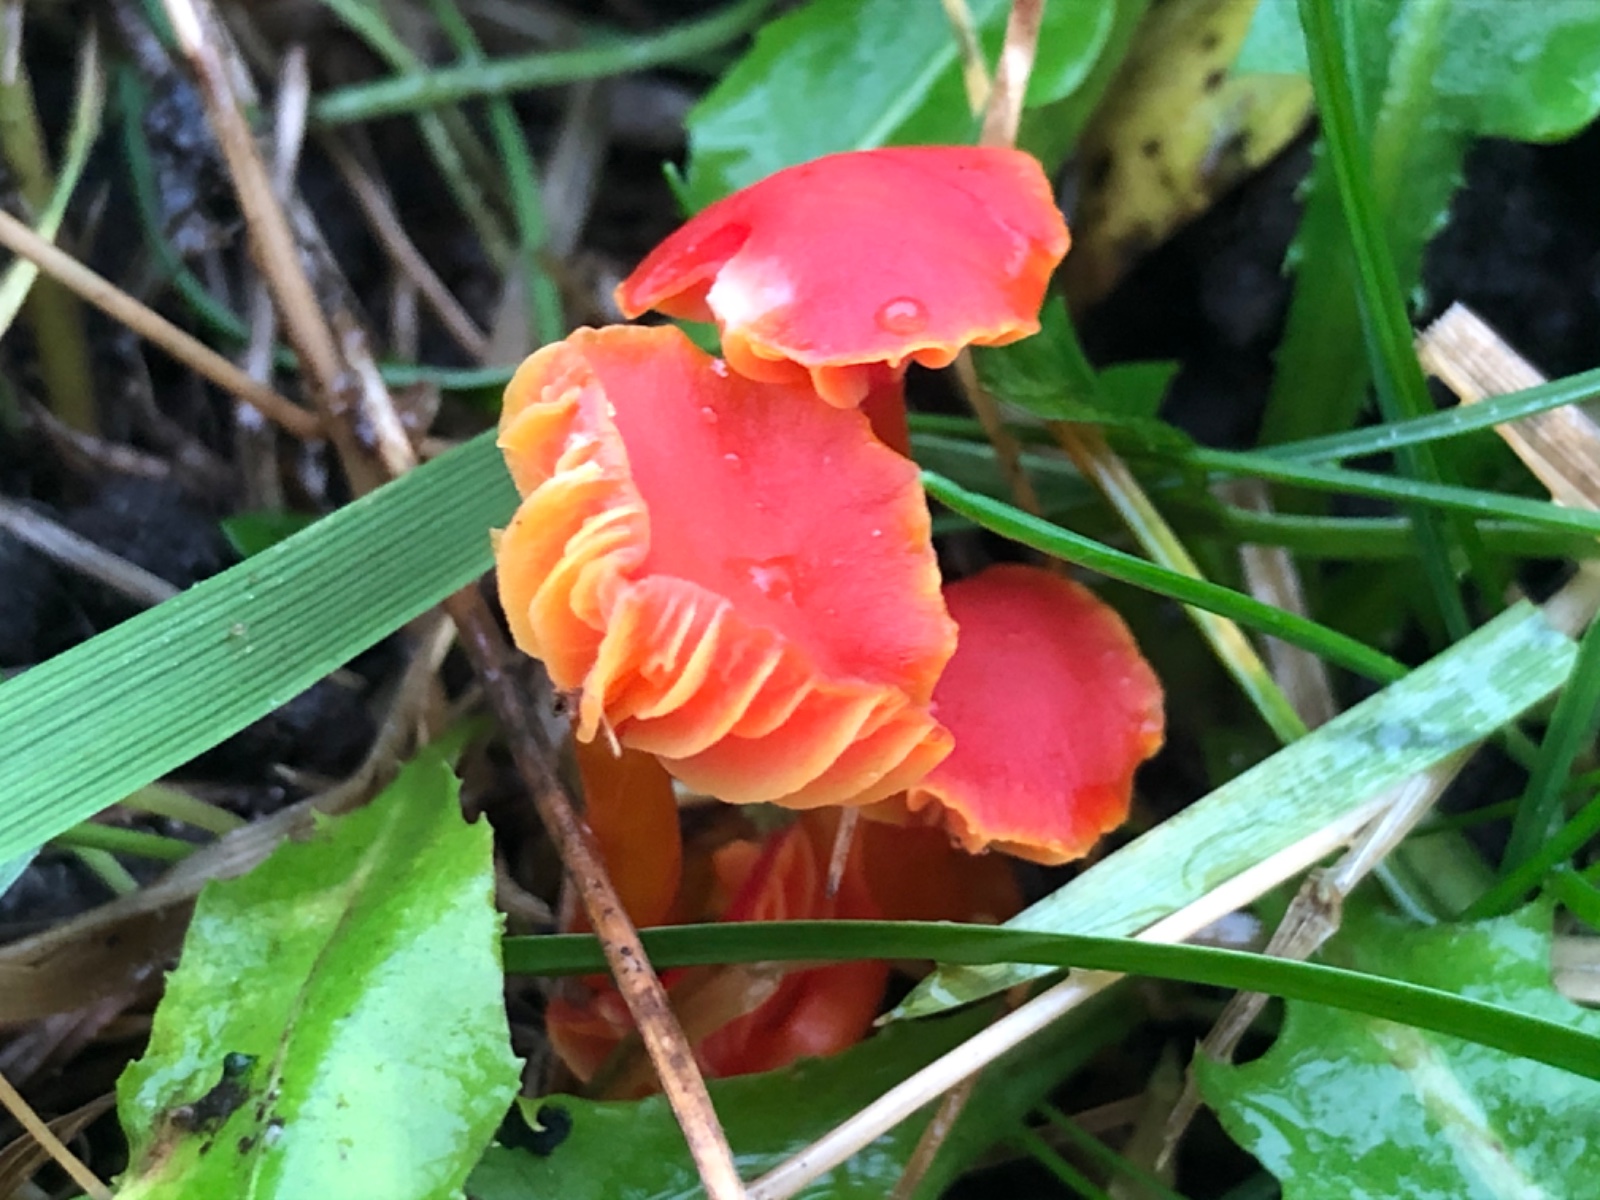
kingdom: Fungi
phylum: Basidiomycota
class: Agaricomycetes
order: Agaricales
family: Hygrophoraceae
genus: Hygrocybe
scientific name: Hygrocybe mucronella
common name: bitter vokshat
